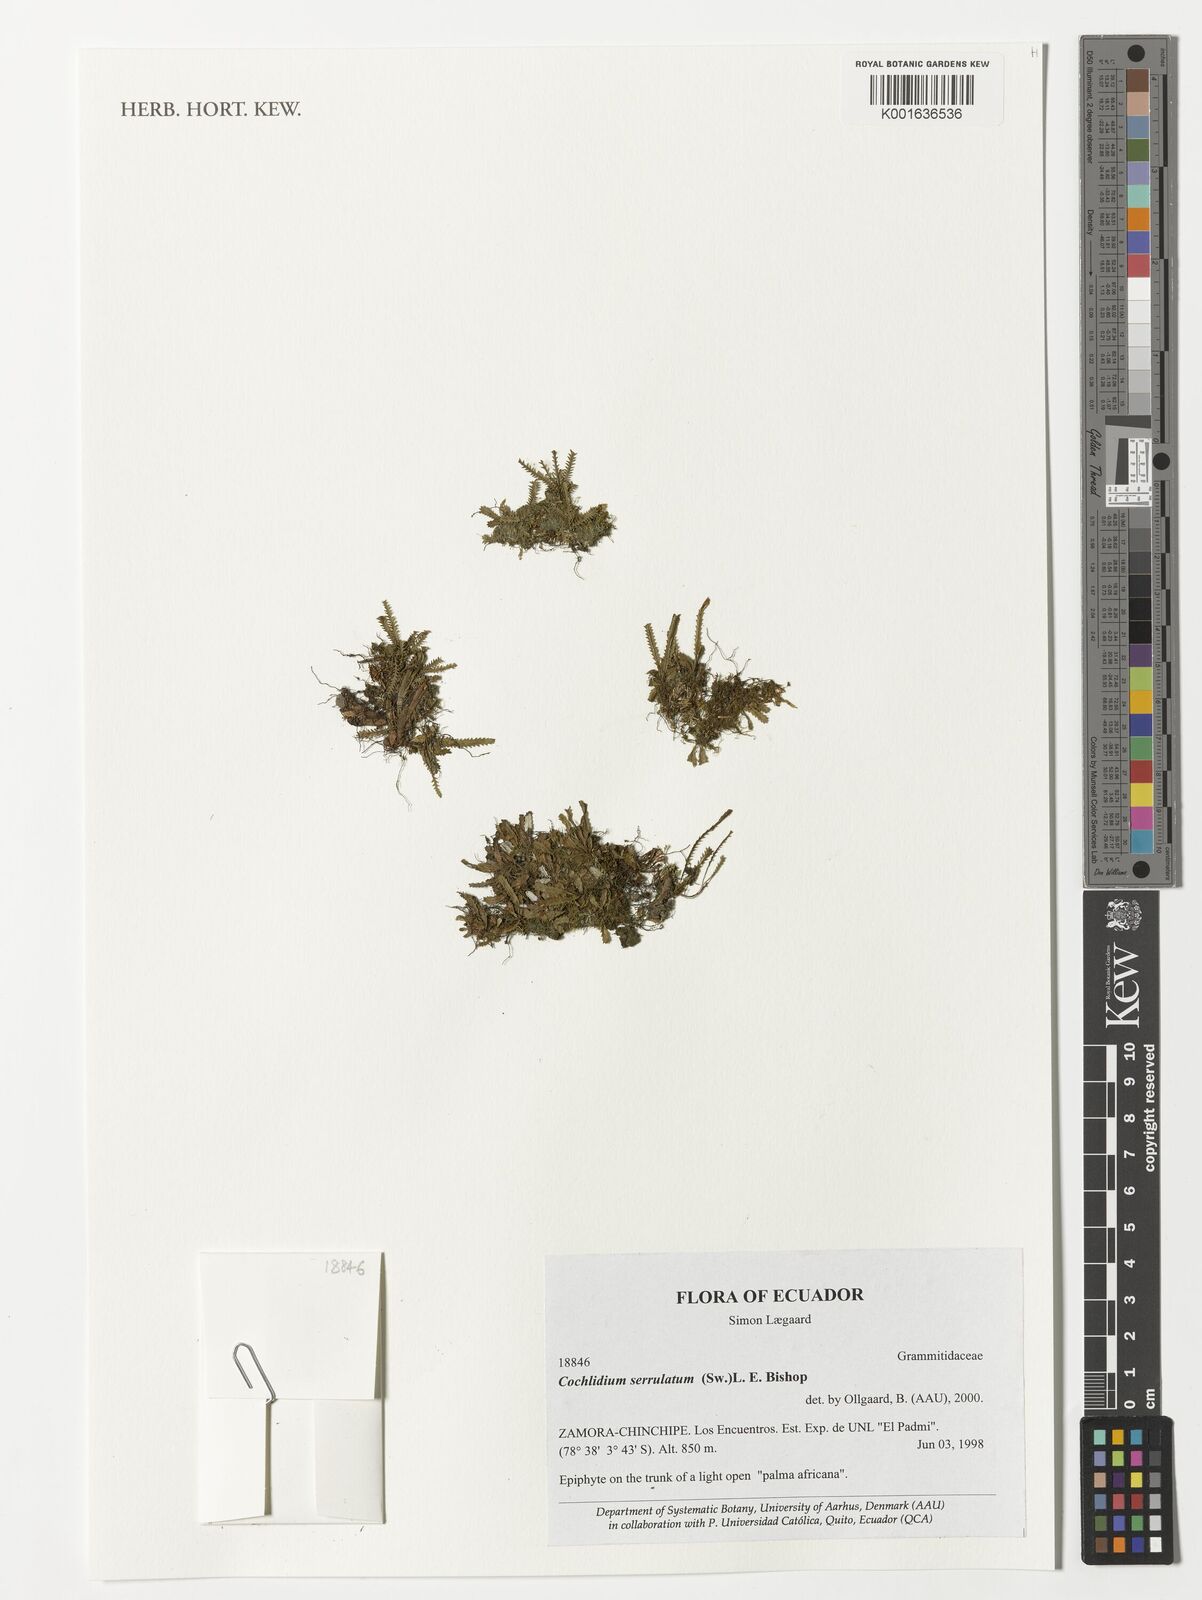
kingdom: Plantae
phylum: Tracheophyta
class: Polypodiopsida
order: Polypodiales
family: Polypodiaceae
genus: Cochlidium
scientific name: Cochlidium serrulatum
